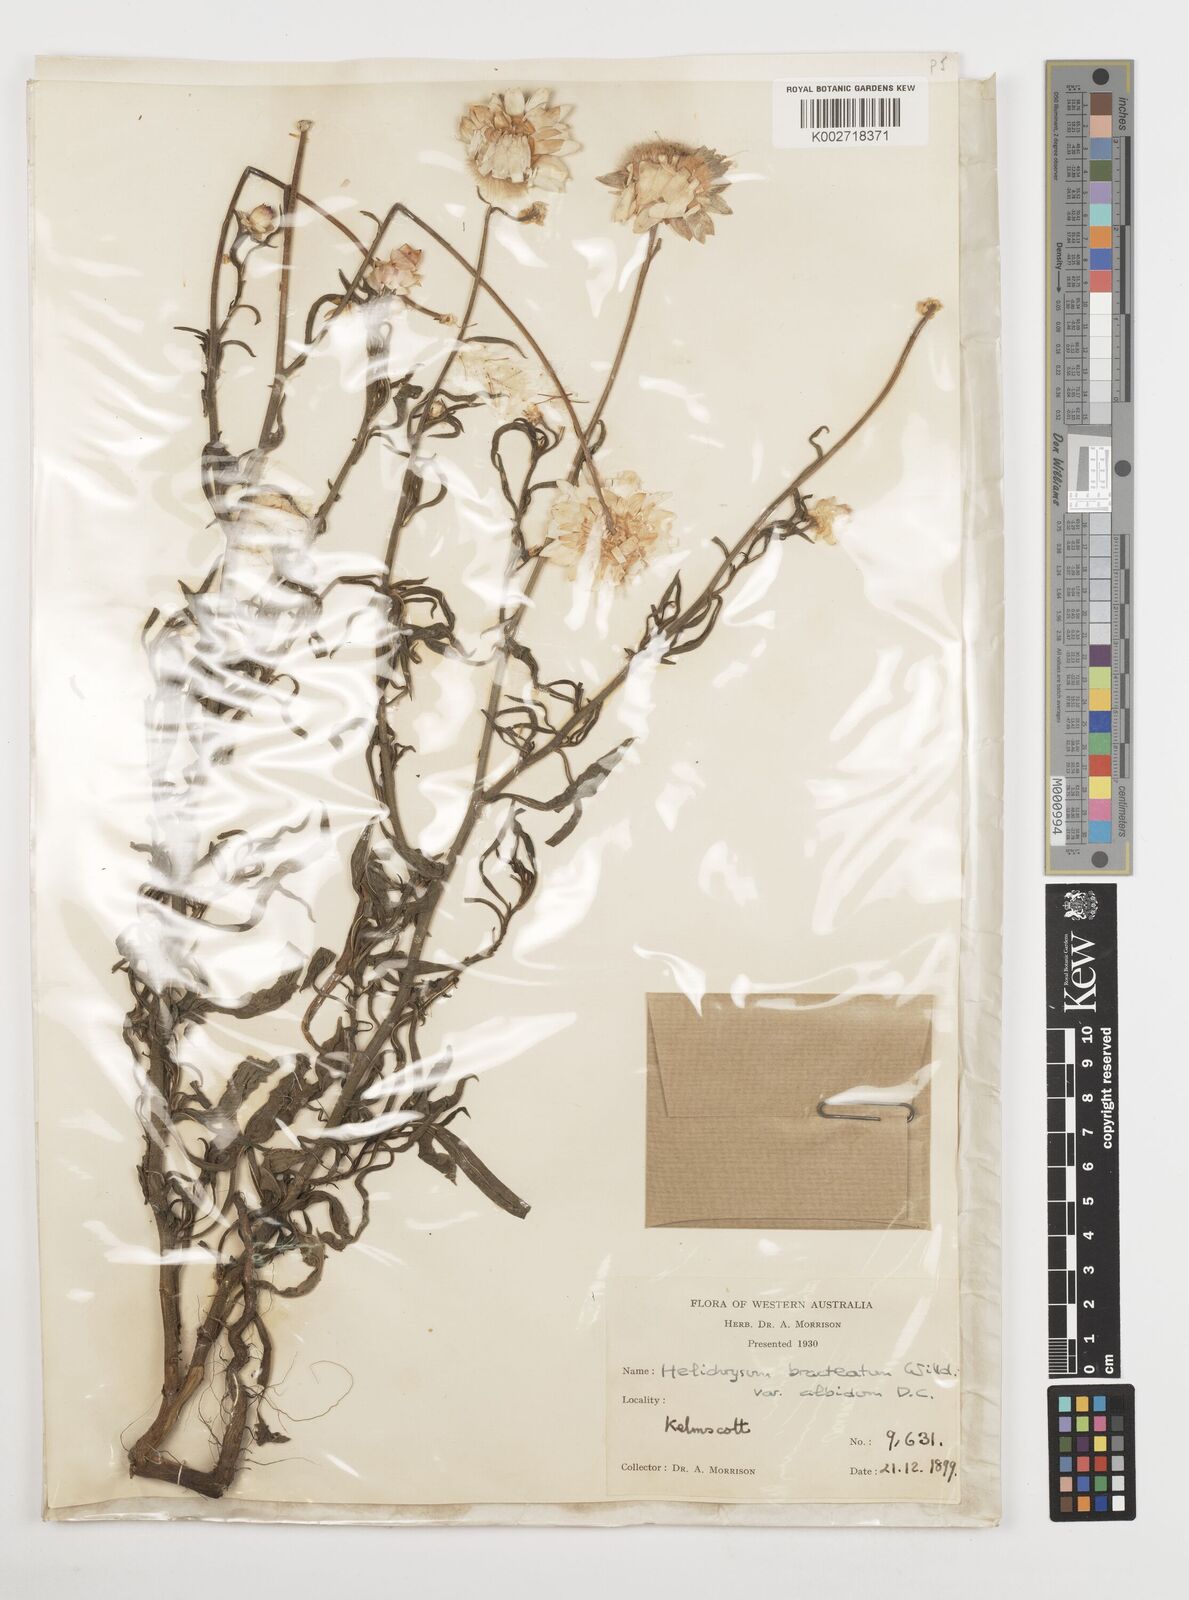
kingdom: Plantae
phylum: Tracheophyta
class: Magnoliopsida
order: Asterales
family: Asteraceae
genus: Xerochrysum
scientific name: Xerochrysum bracteatum
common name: Bracted strawflower
